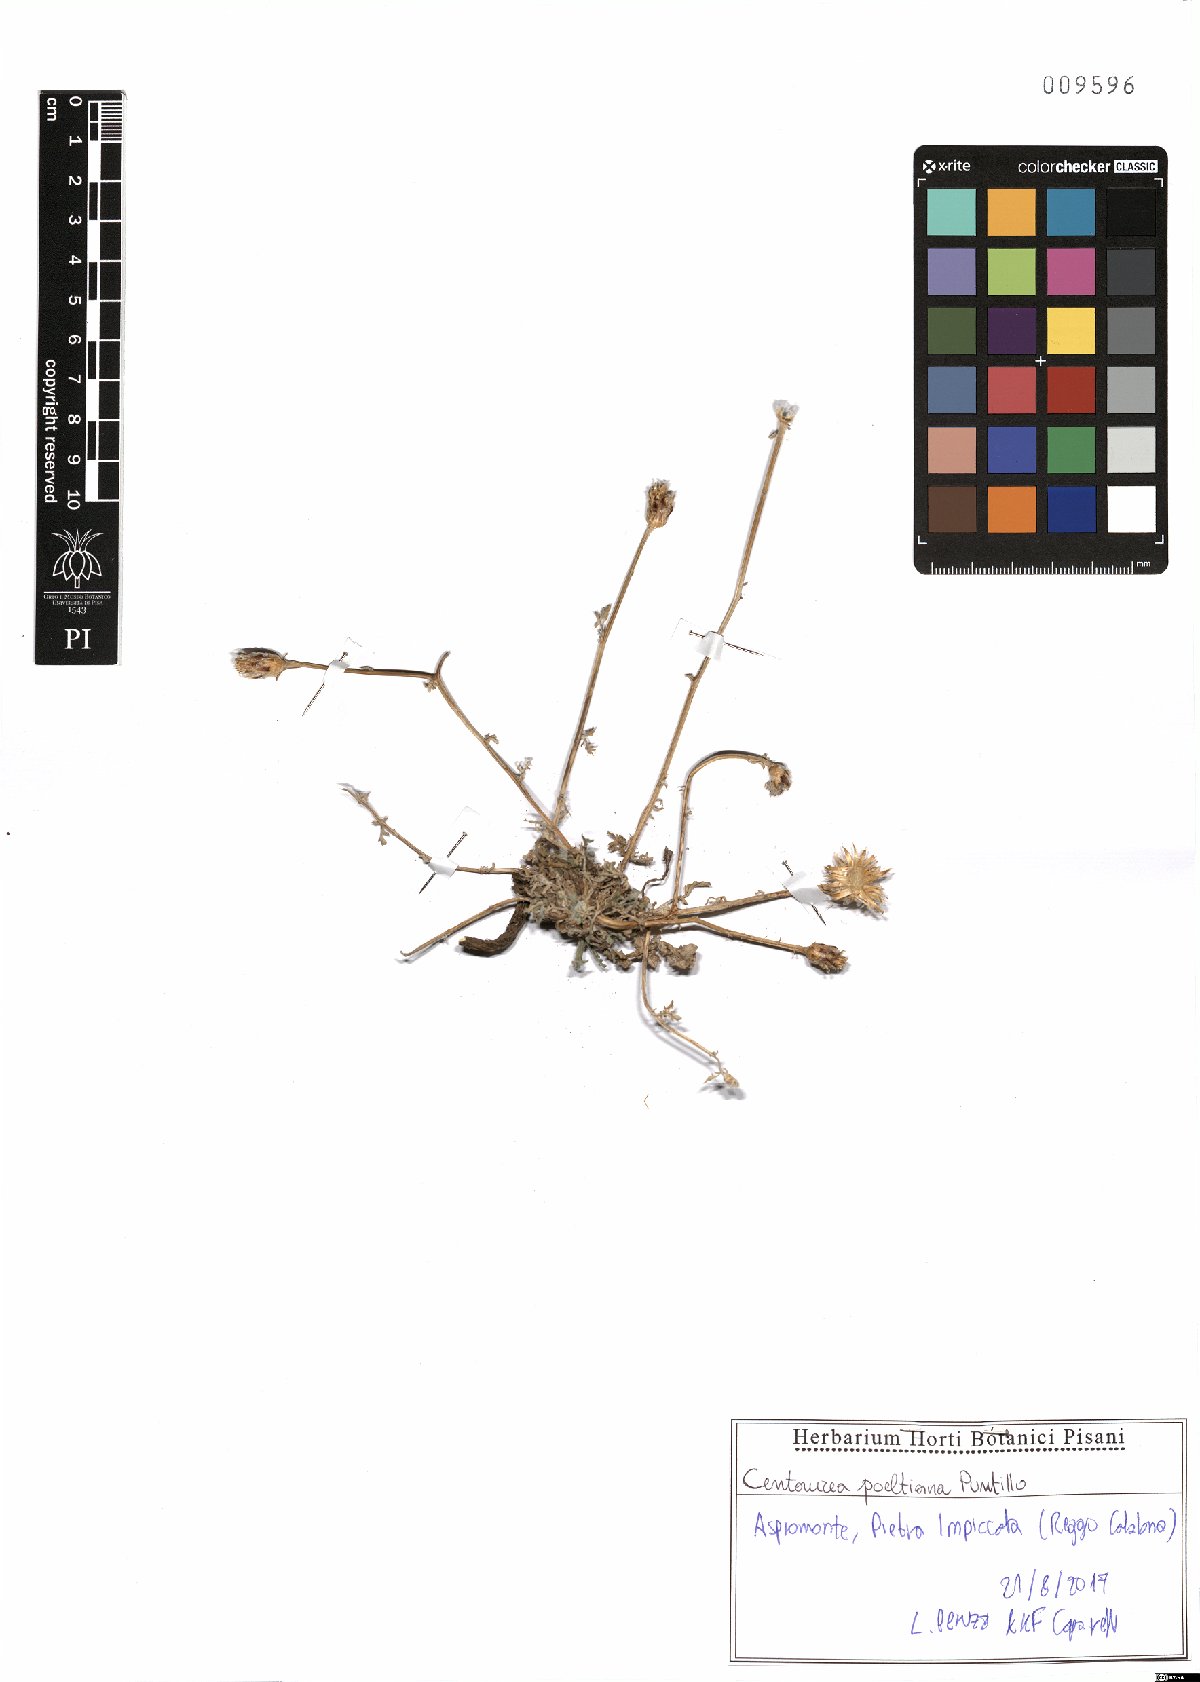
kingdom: Plantae
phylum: Tracheophyta
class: Magnoliopsida
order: Asterales
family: Asteraceae
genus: Centaurea
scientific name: Centaurea poeltiana
